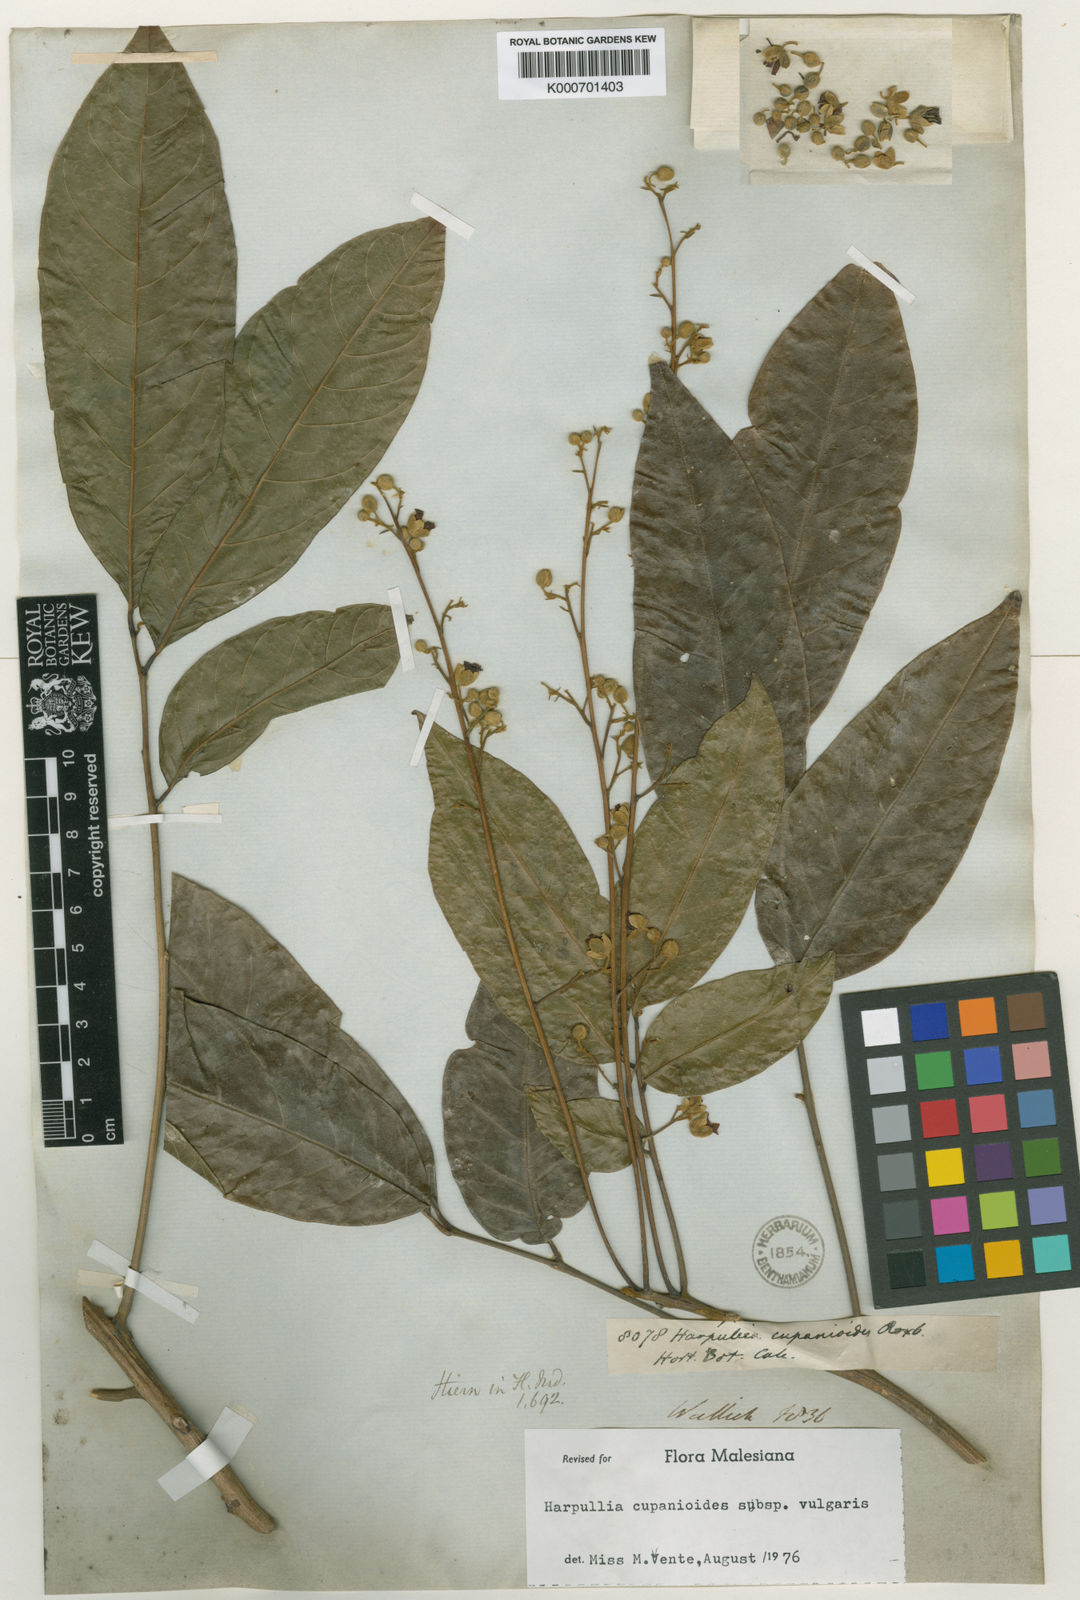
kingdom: Plantae
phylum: Tracheophyta
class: Magnoliopsida
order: Sapindales
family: Sapindaceae
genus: Harpullia
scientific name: Harpullia cupanioides
